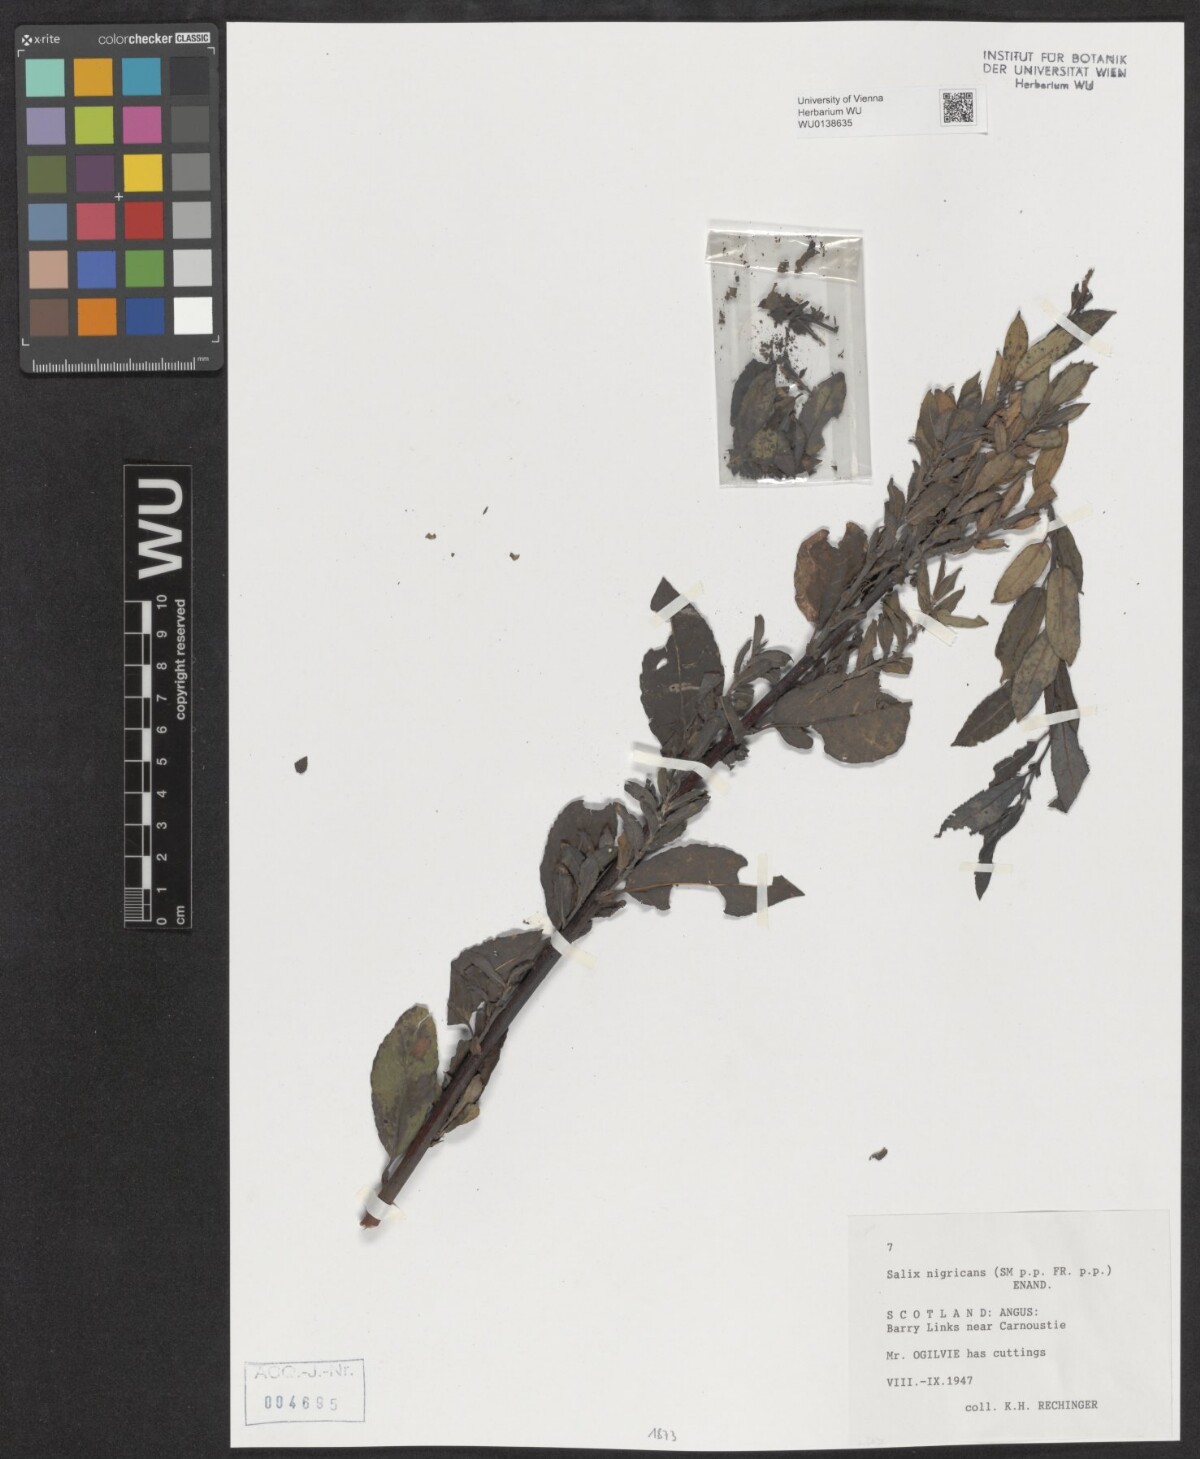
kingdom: Plantae
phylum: Tracheophyta
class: Magnoliopsida
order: Malpighiales
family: Salicaceae
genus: Salix
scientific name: Salix myrsinifolia
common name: Dark-leaved willow
